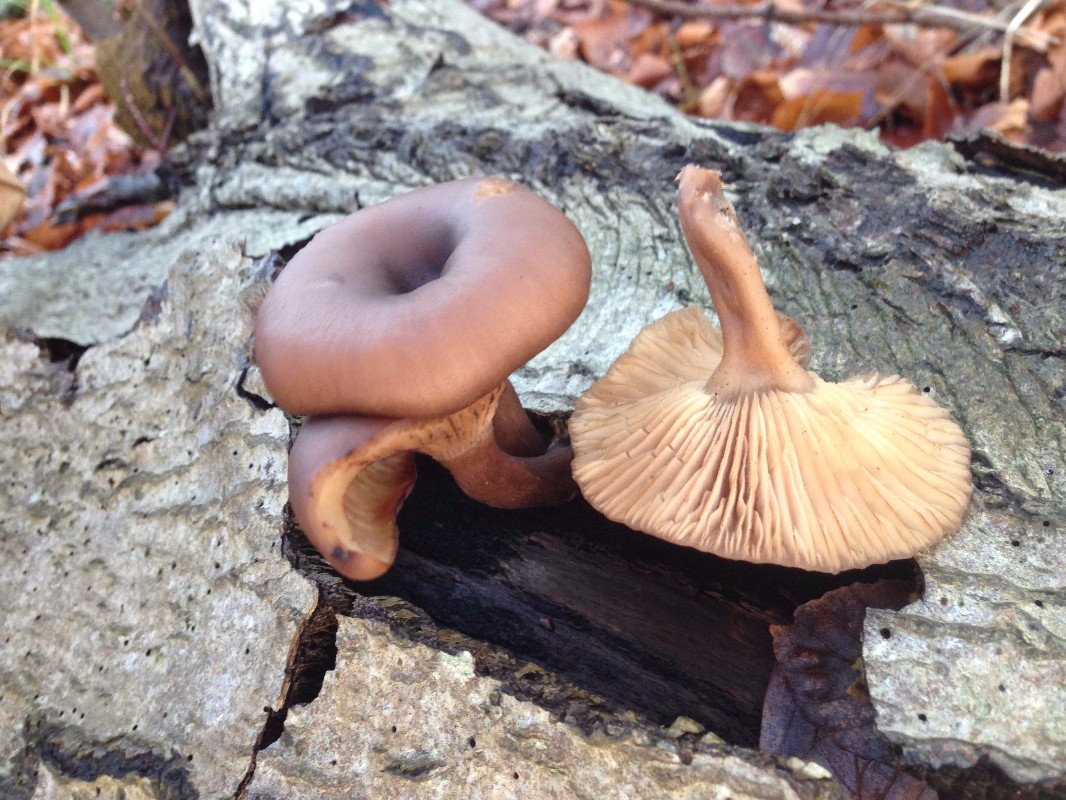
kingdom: Fungi
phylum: Basidiomycota
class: Agaricomycetes
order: Agaricales
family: Pseudoclitocybaceae
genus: Pseudoclitocybe
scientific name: Pseudoclitocybe cyathiformis
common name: almindelig bægertragthat
